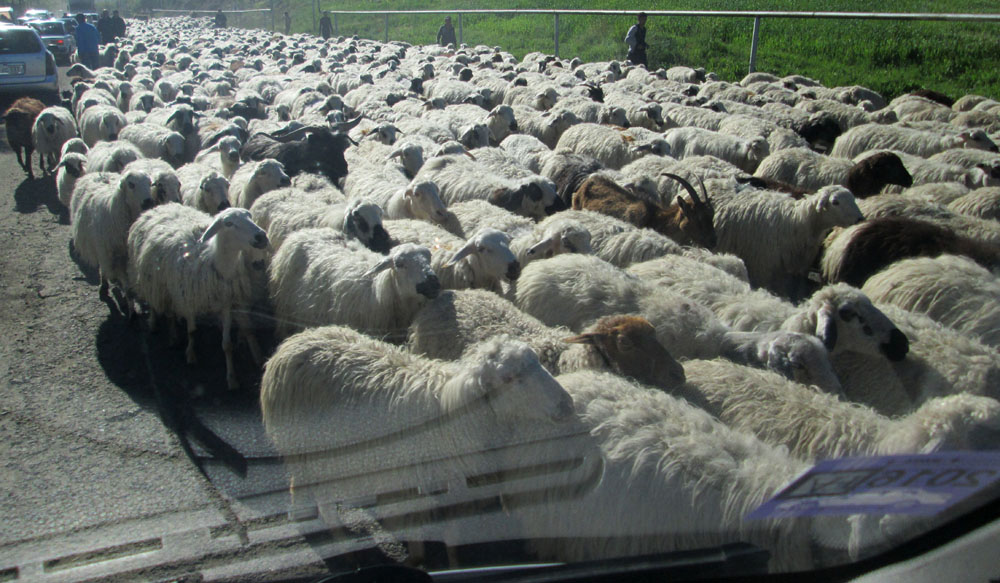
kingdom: Animalia
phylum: Chordata
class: Mammalia
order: Artiodactyla
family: Bovidae
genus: Ovis
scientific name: Ovis aries
